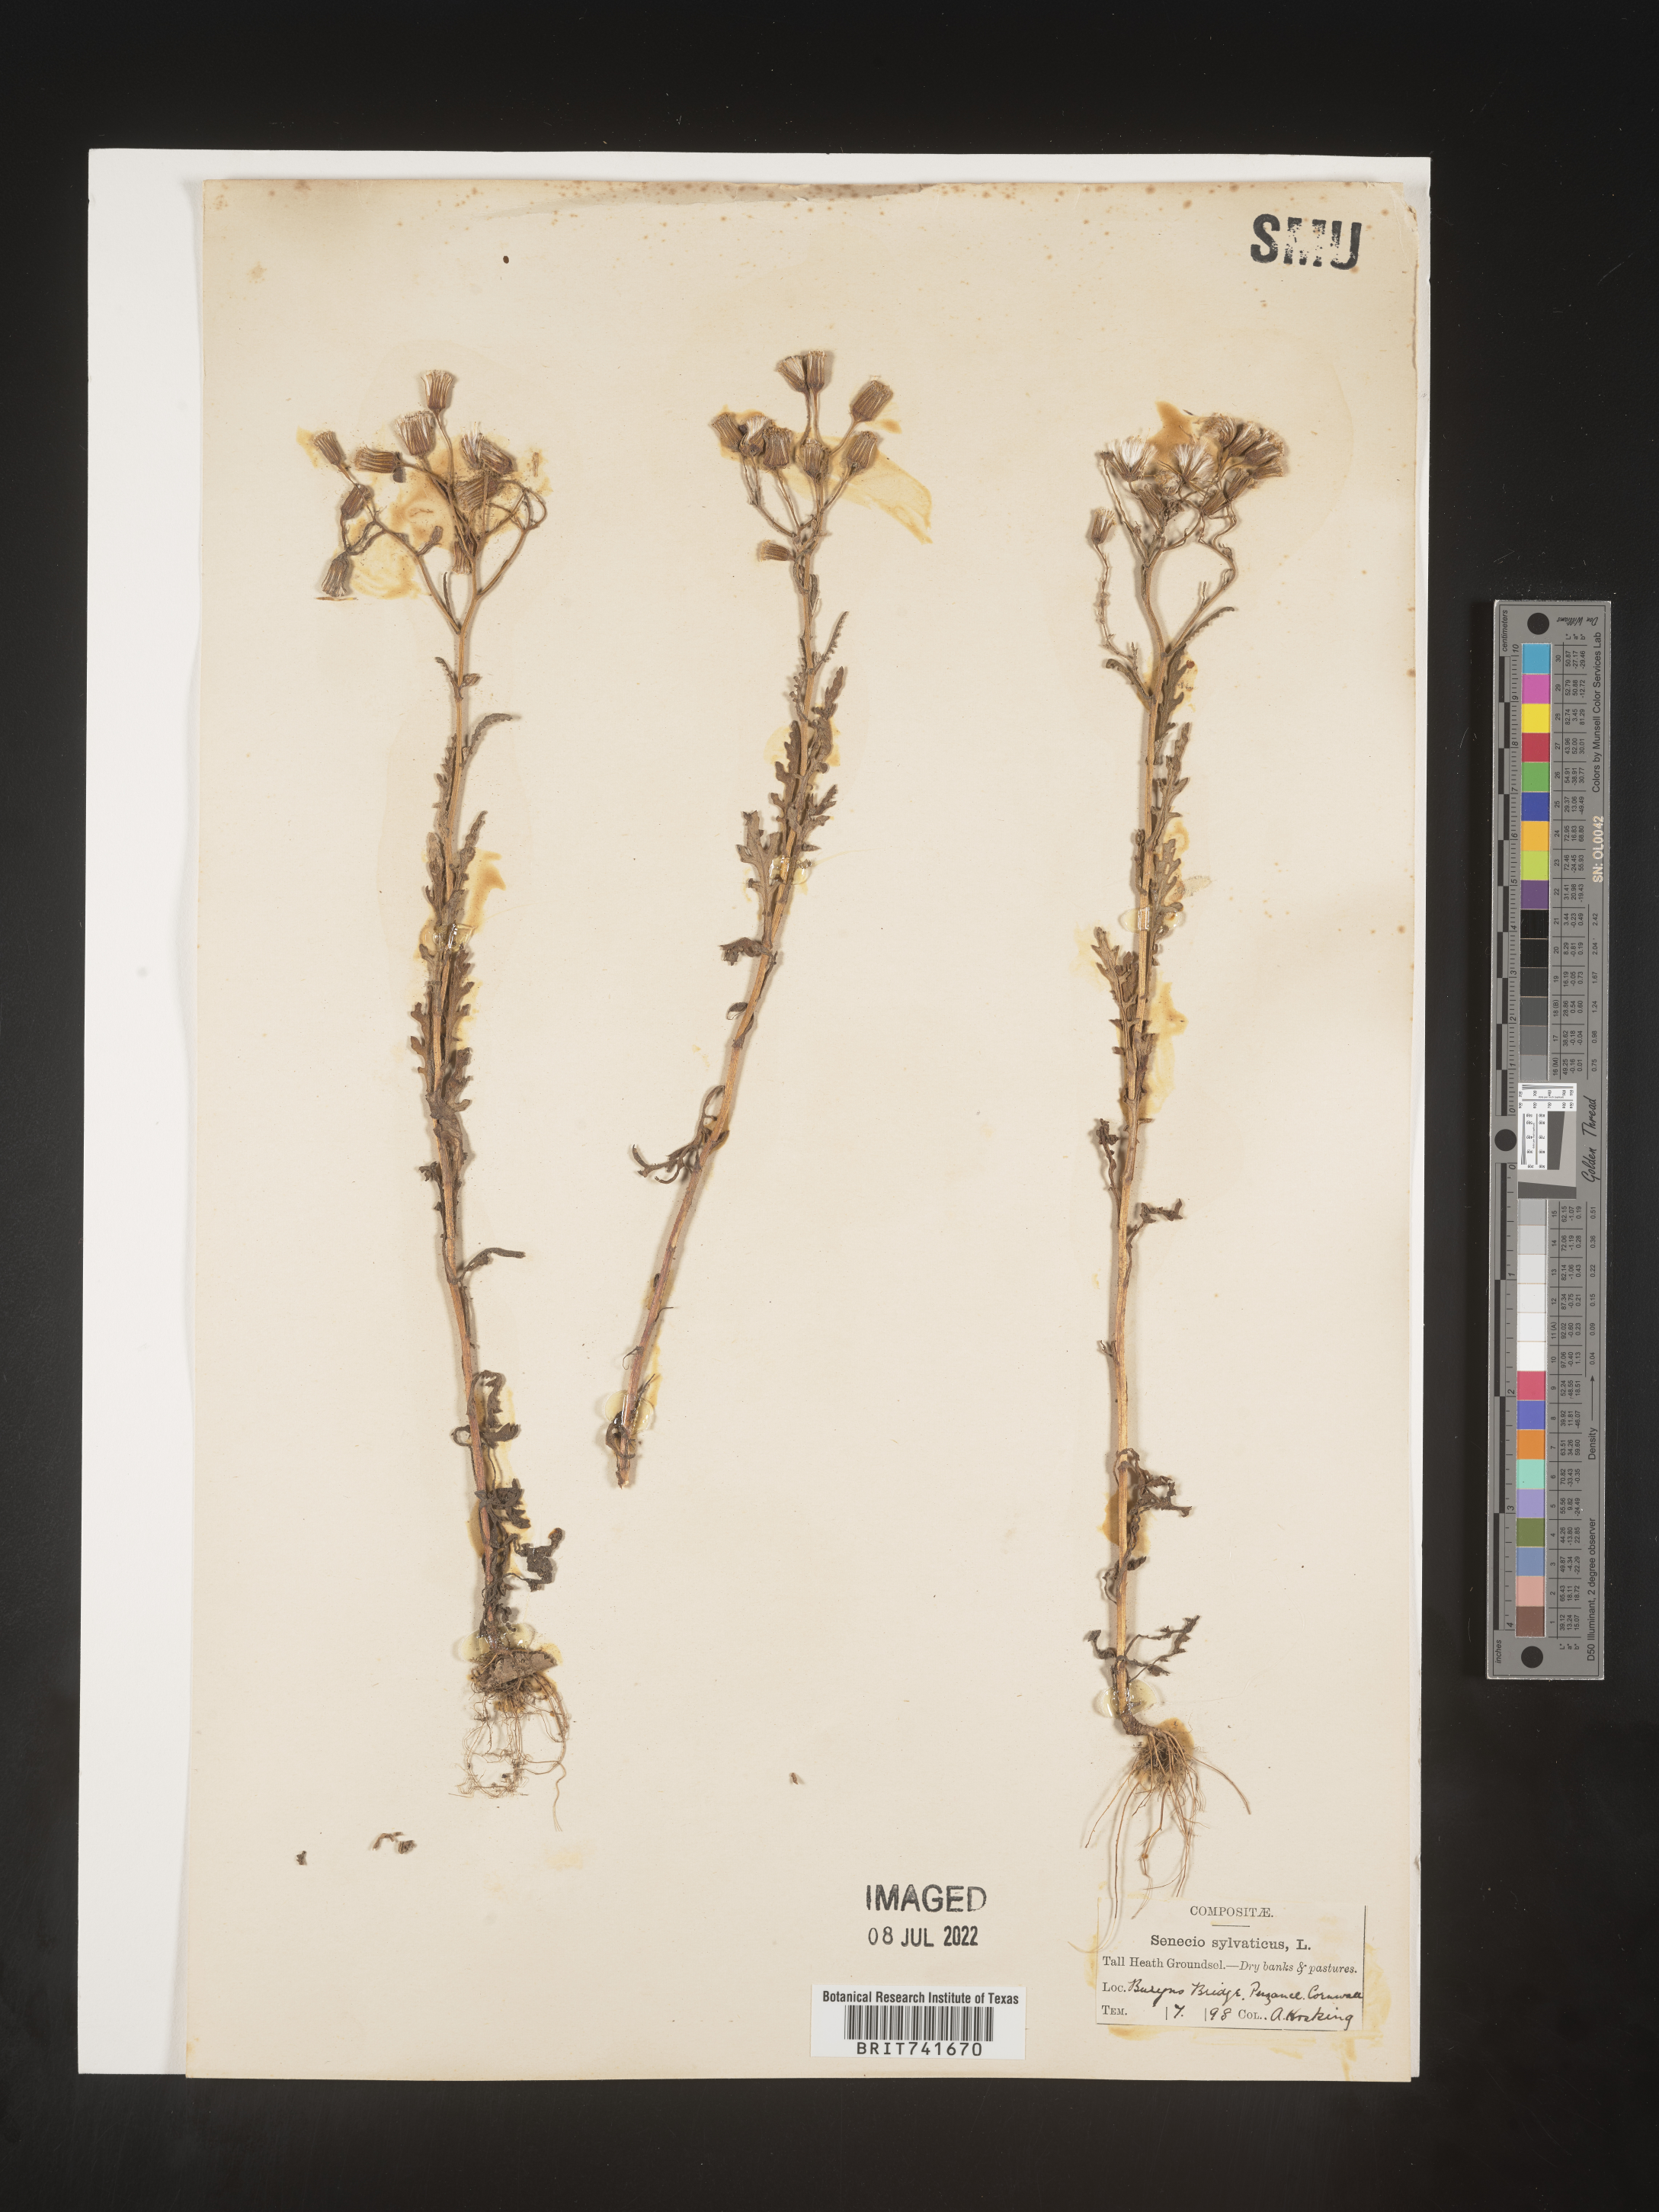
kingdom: Plantae
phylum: Tracheophyta
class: Magnoliopsida
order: Asterales
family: Asteraceae
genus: Senecio
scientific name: Senecio
